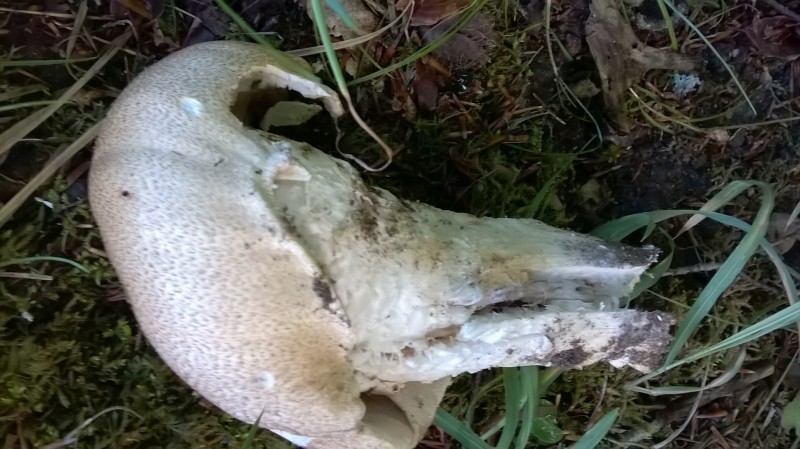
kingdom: Fungi
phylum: Basidiomycota
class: Agaricomycetes
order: Agaricales
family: Agaricaceae
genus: Agaricus
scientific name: Agaricus augustus
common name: prægtig champignon
